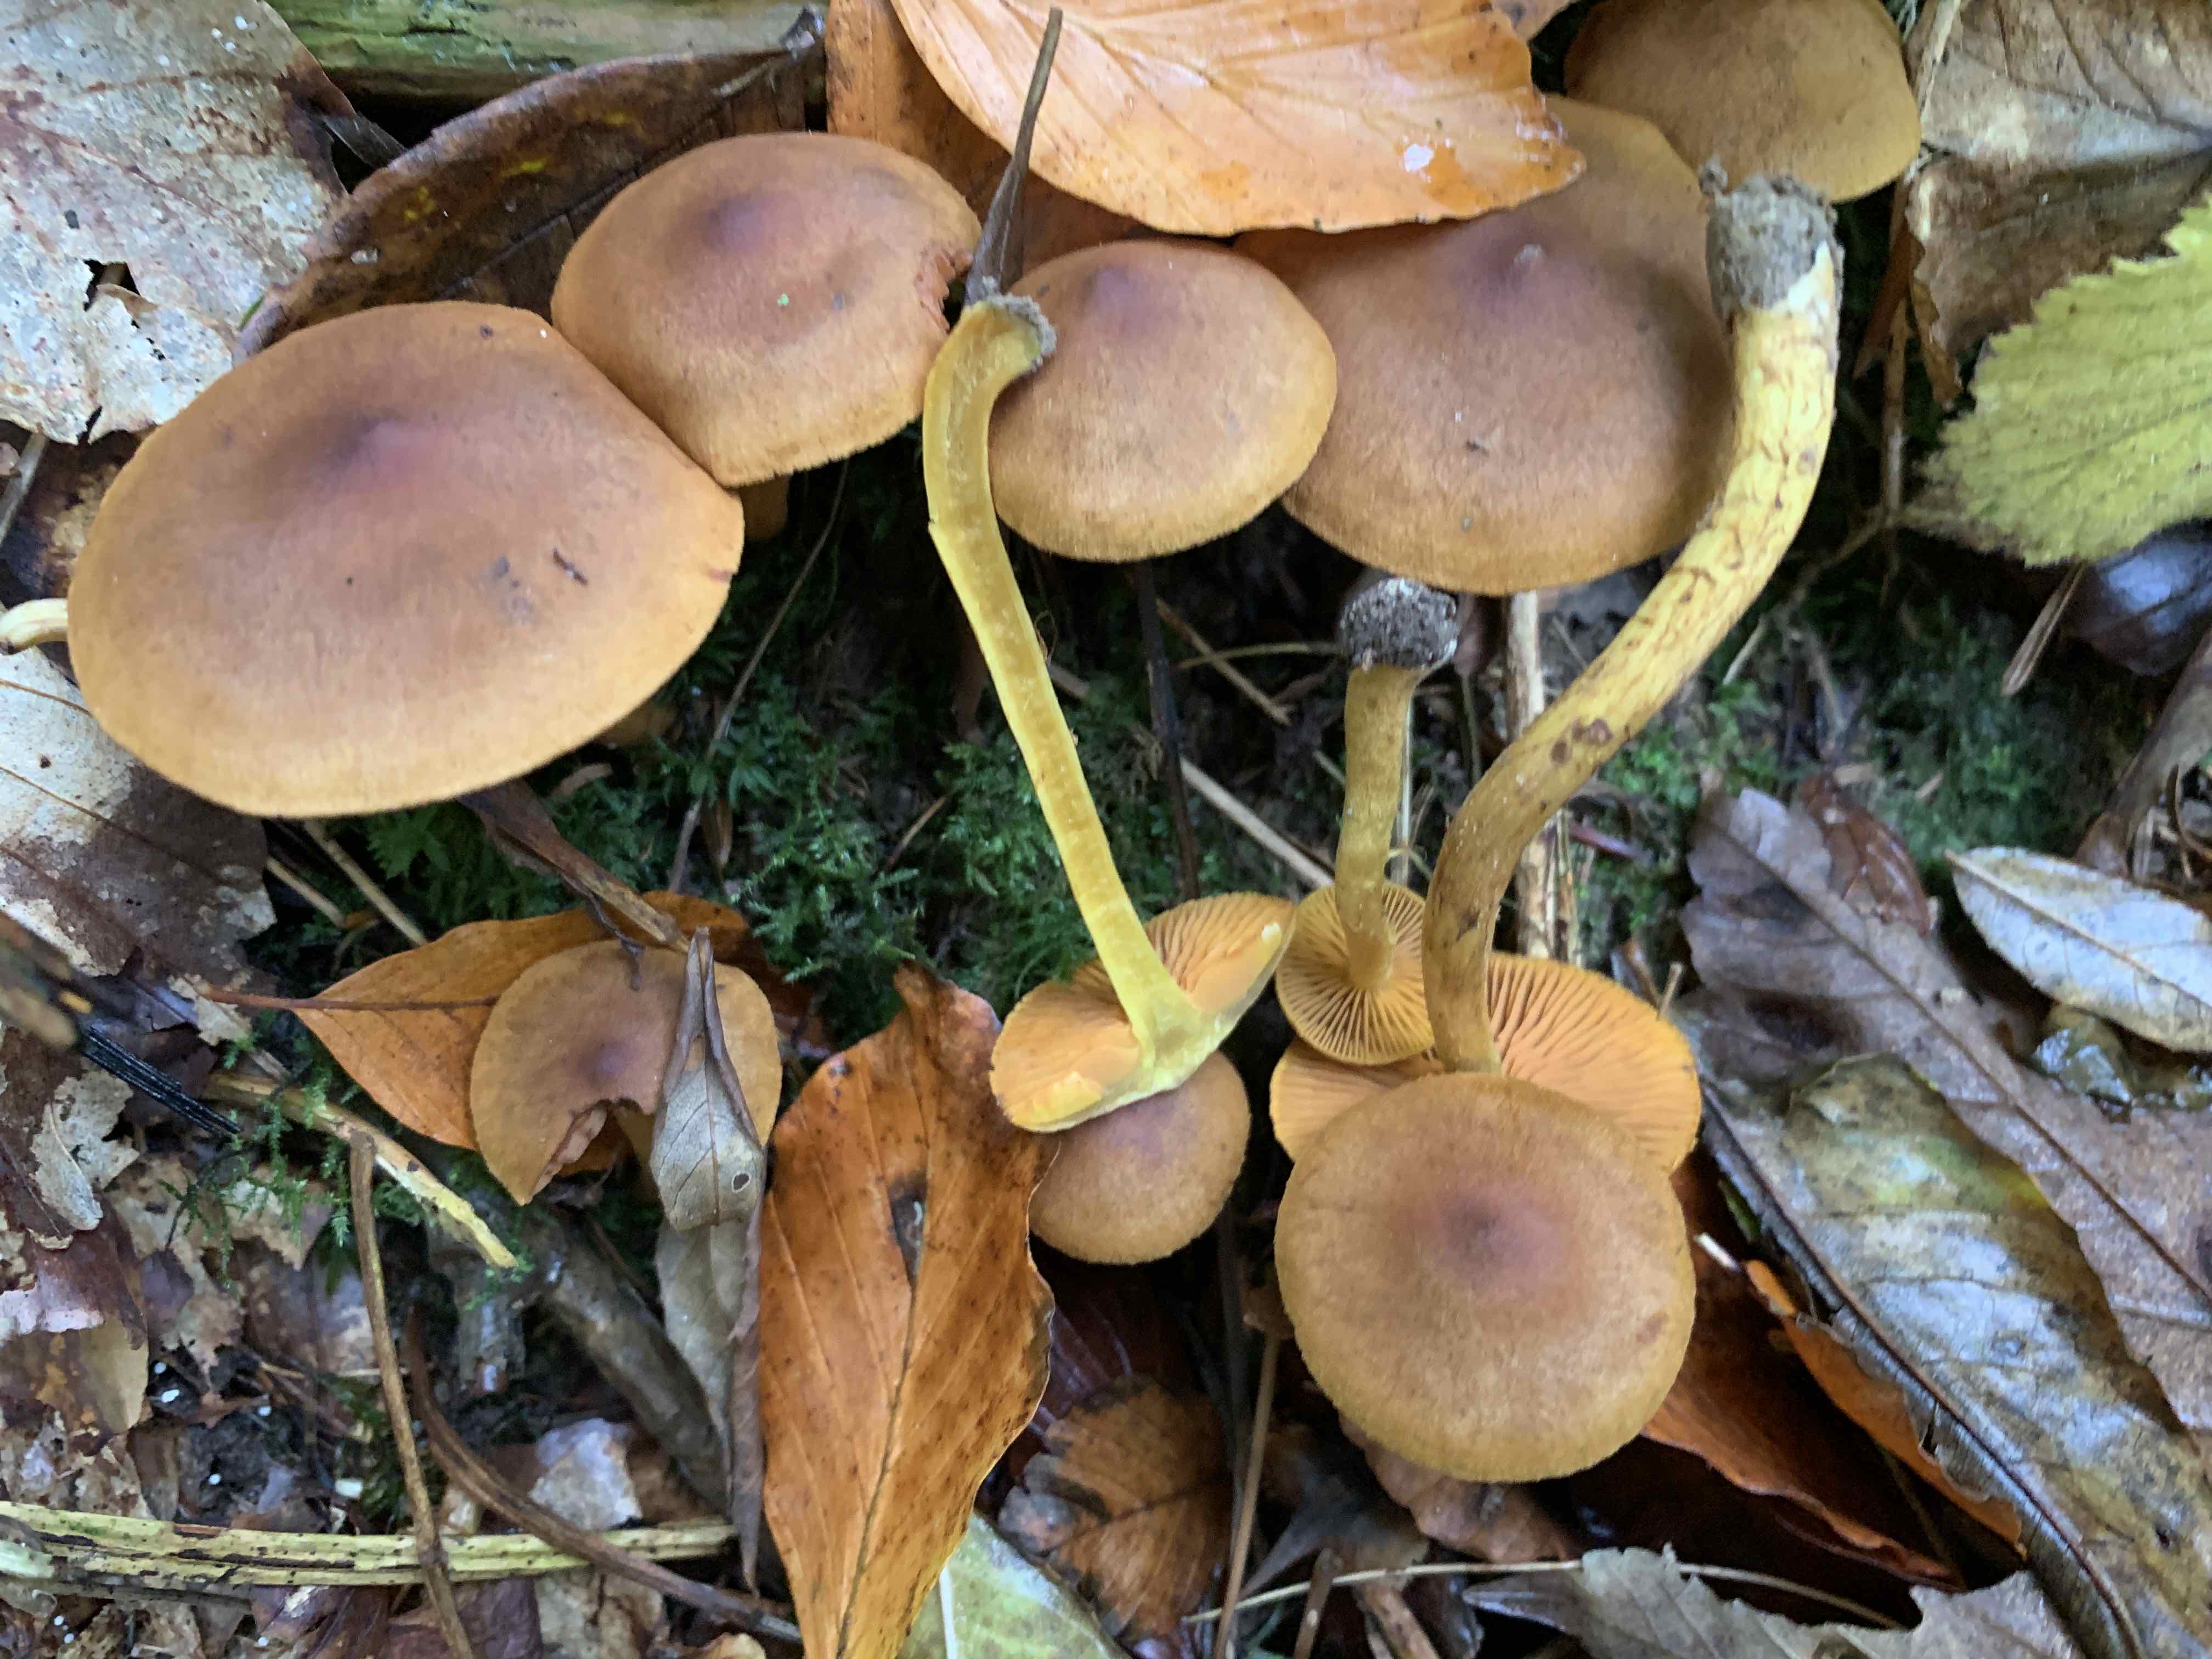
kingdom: Fungi
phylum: Basidiomycota
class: Agaricomycetes
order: Agaricales
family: Cortinariaceae
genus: Cortinarius
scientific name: Cortinarius malicorius
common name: grønkødet slørhat
